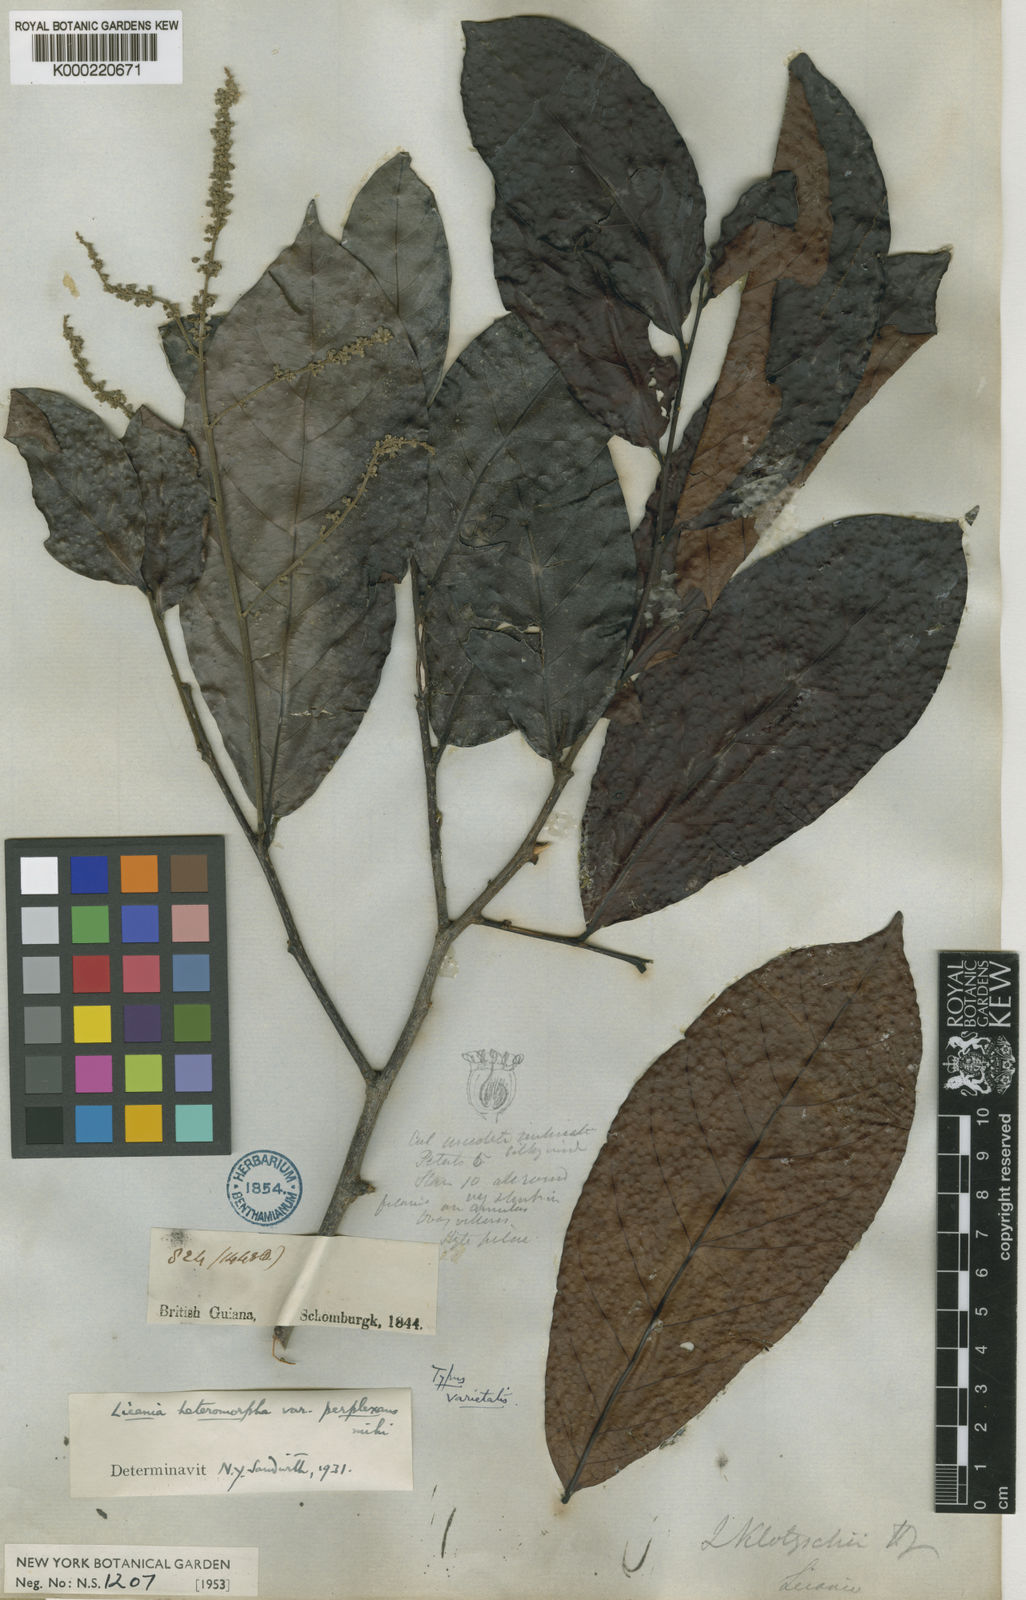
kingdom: Plantae
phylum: Tracheophyta
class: Magnoliopsida
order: Malpighiales
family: Chrysobalanaceae
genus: Hymenopus
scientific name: Hymenopus heteromorphus
